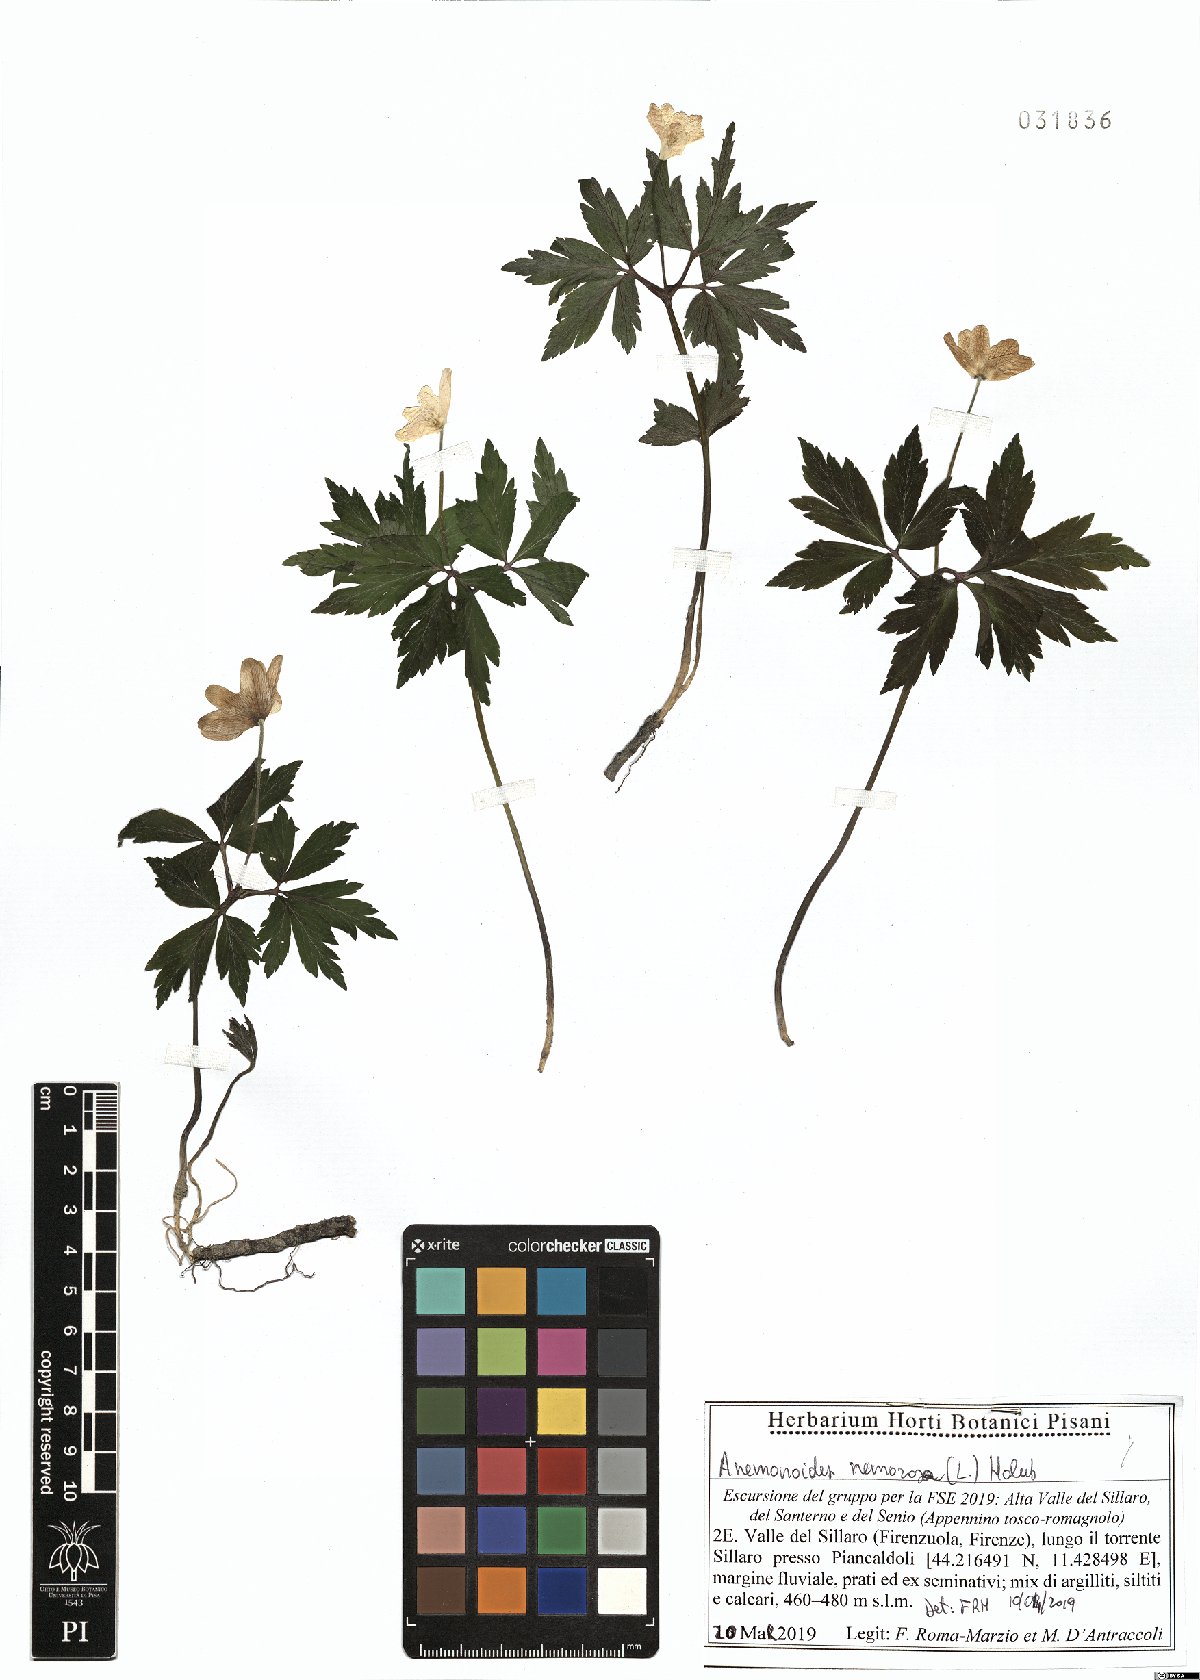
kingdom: Plantae
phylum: Tracheophyta
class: Magnoliopsida
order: Ranunculales
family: Ranunculaceae
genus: Anemone
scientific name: Anemone nemorosa
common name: Wood anemone
